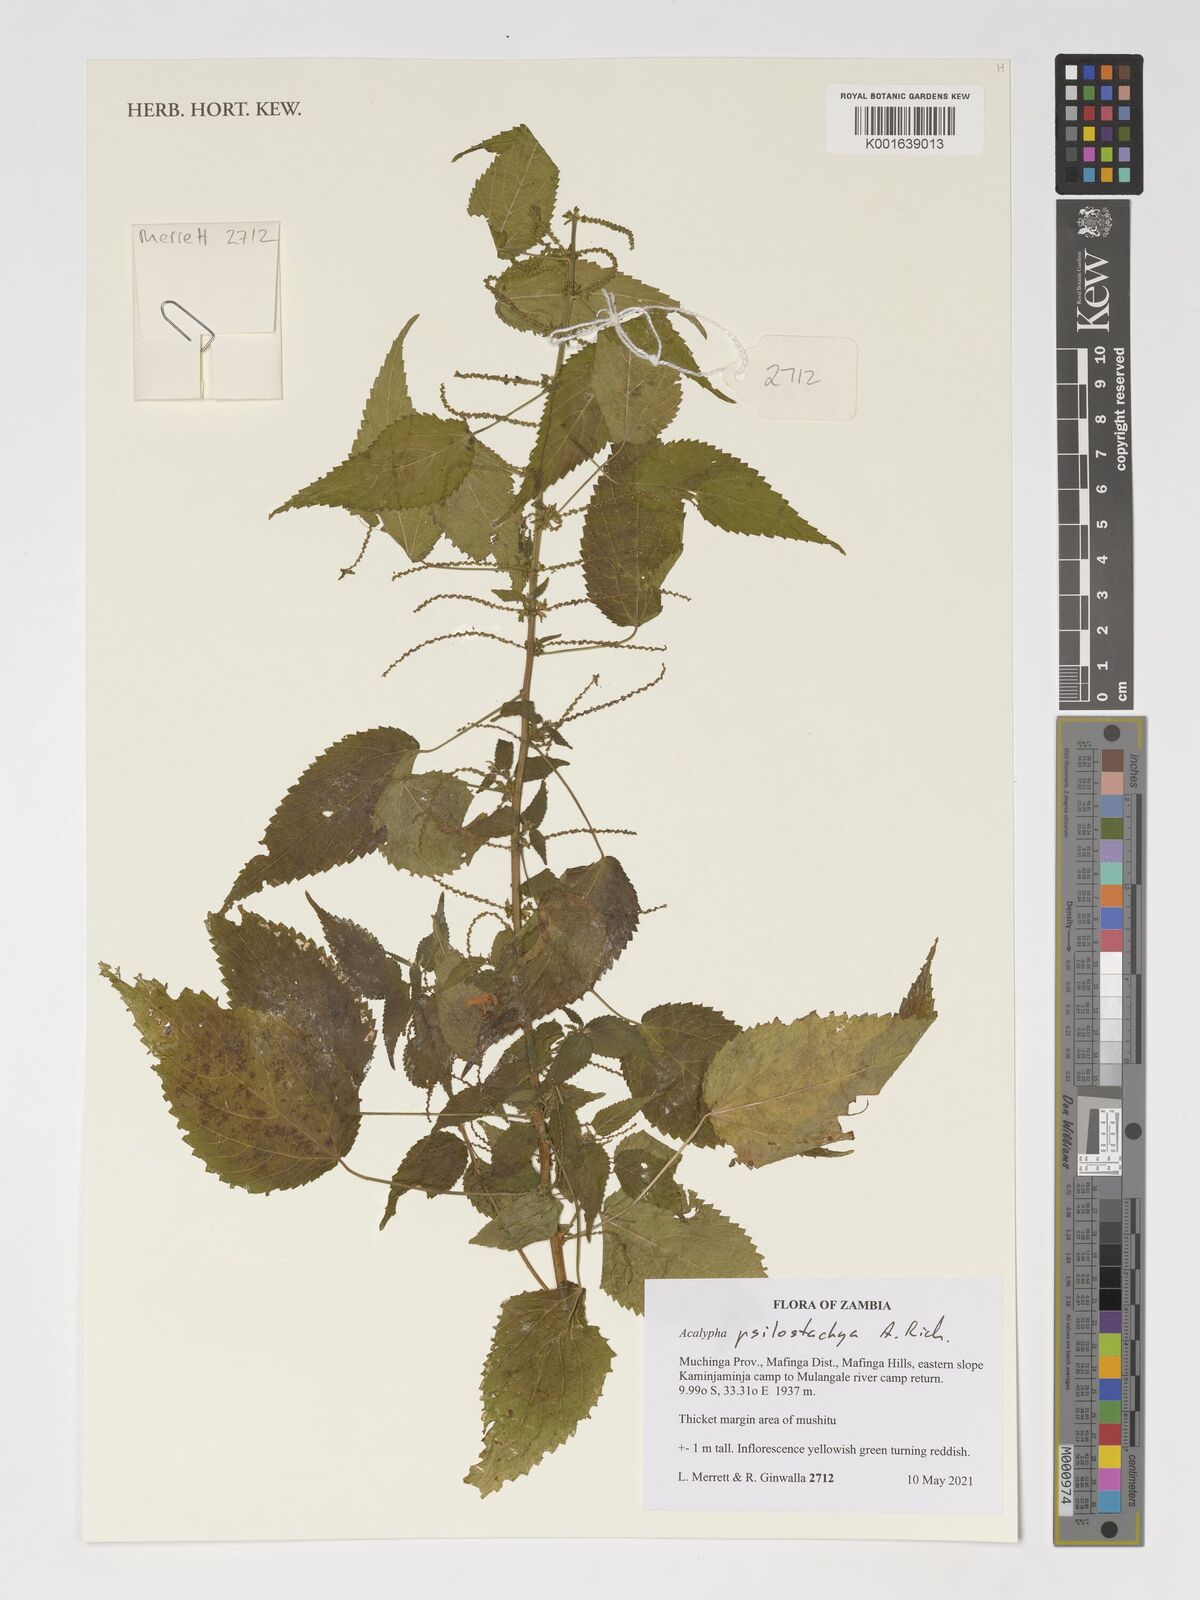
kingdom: Plantae
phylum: Tracheophyta
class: Magnoliopsida
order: Malpighiales
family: Euphorbiaceae
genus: Acalypha
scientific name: Acalypha psilostachya
